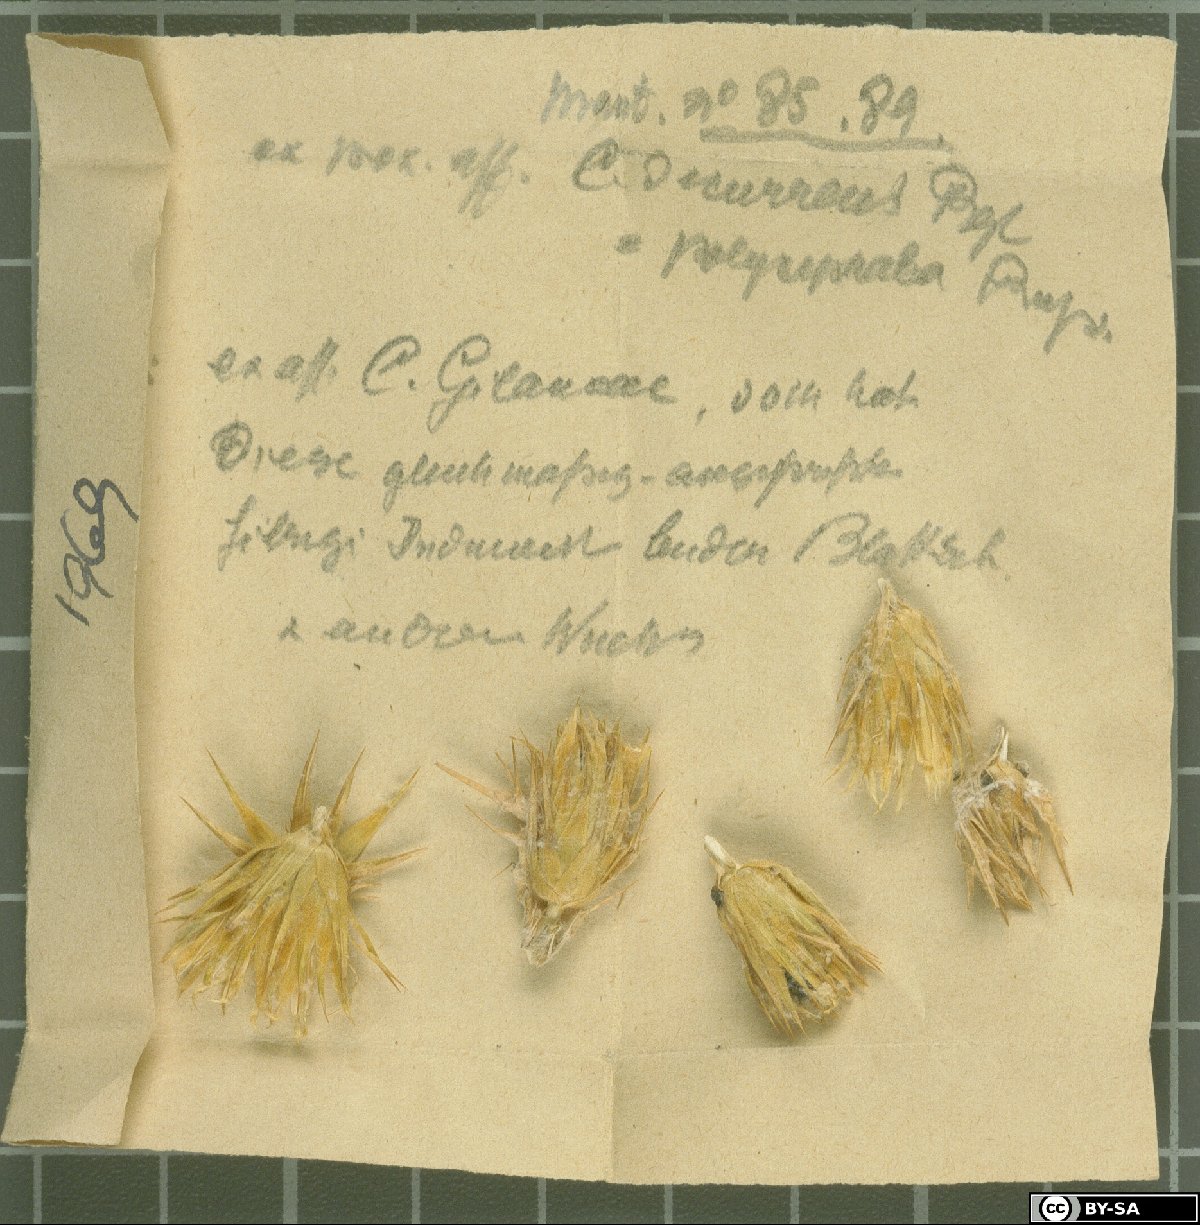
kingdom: Plantae
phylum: Tracheophyta
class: Magnoliopsida
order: Asterales
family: Asteraceae
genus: Cousinia
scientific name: Cousinia glaucopsis
